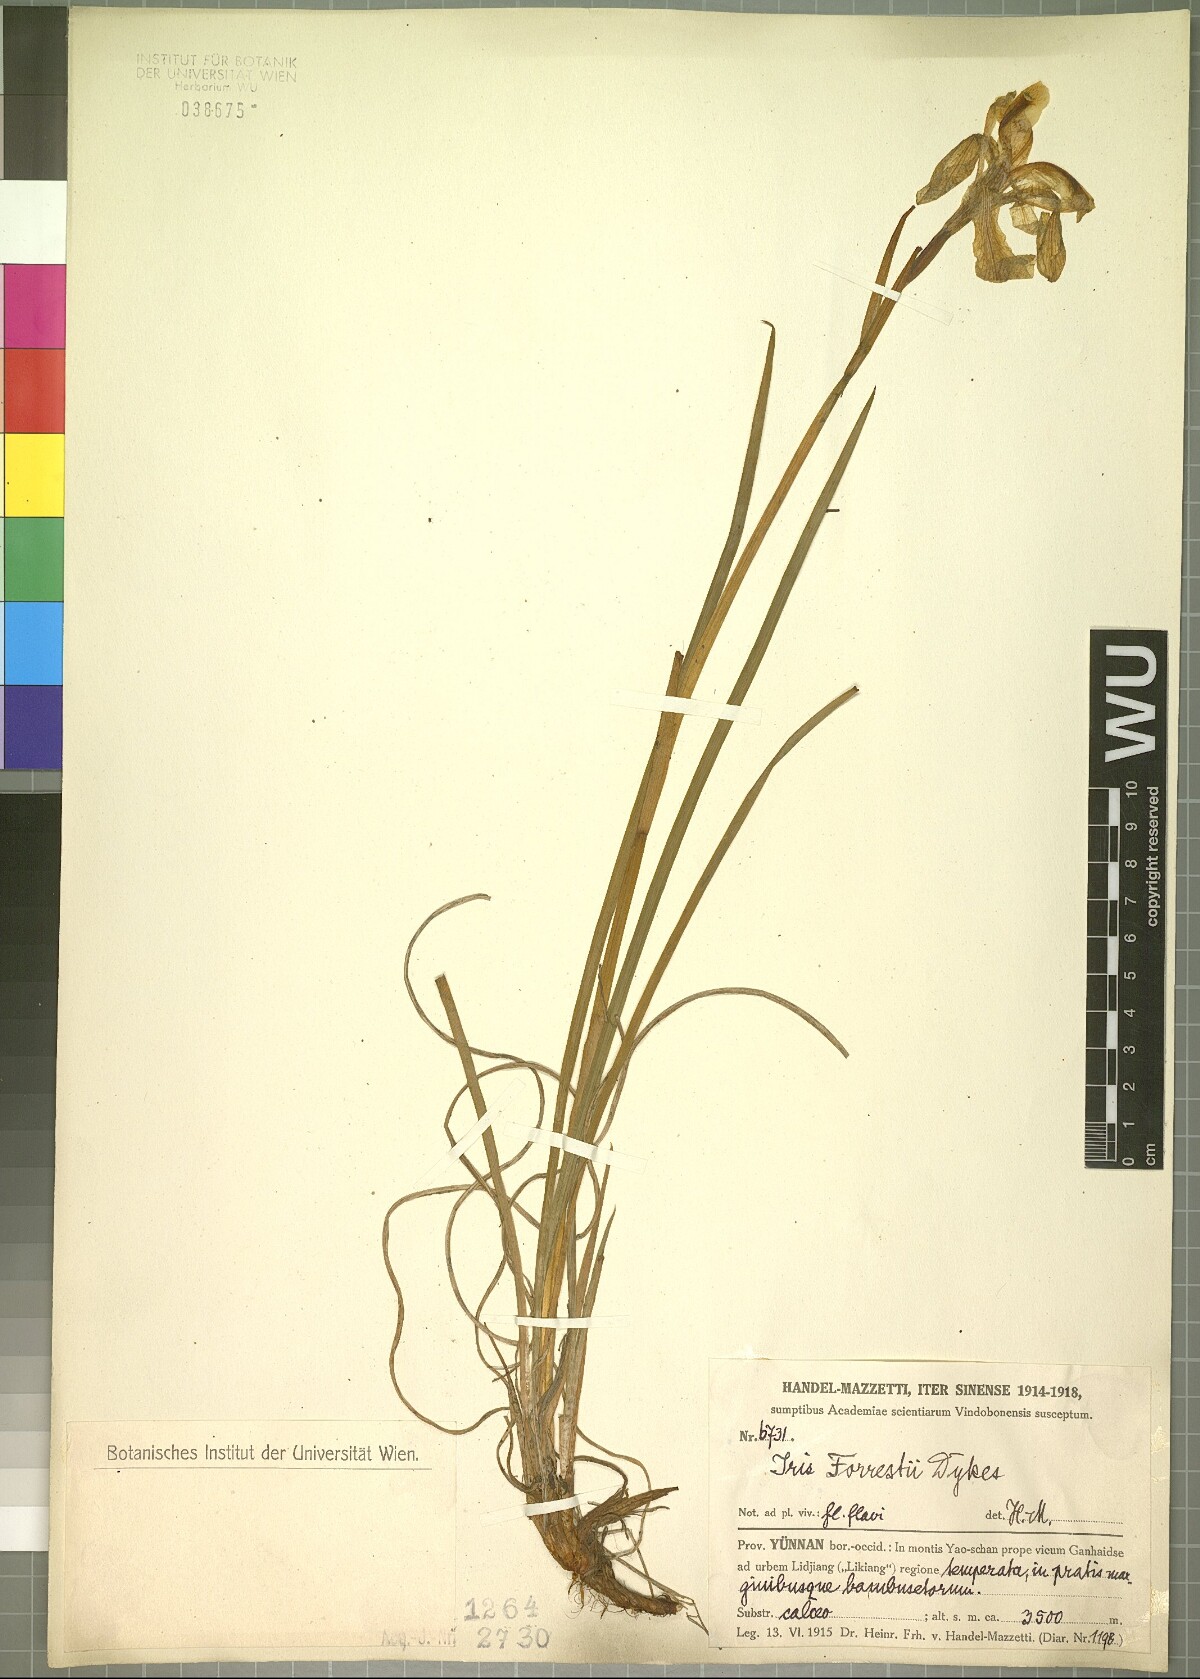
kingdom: Plantae
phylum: Tracheophyta
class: Liliopsida
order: Asparagales
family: Iridaceae
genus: Iris
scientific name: Iris forrestii
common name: Yunnan iris
